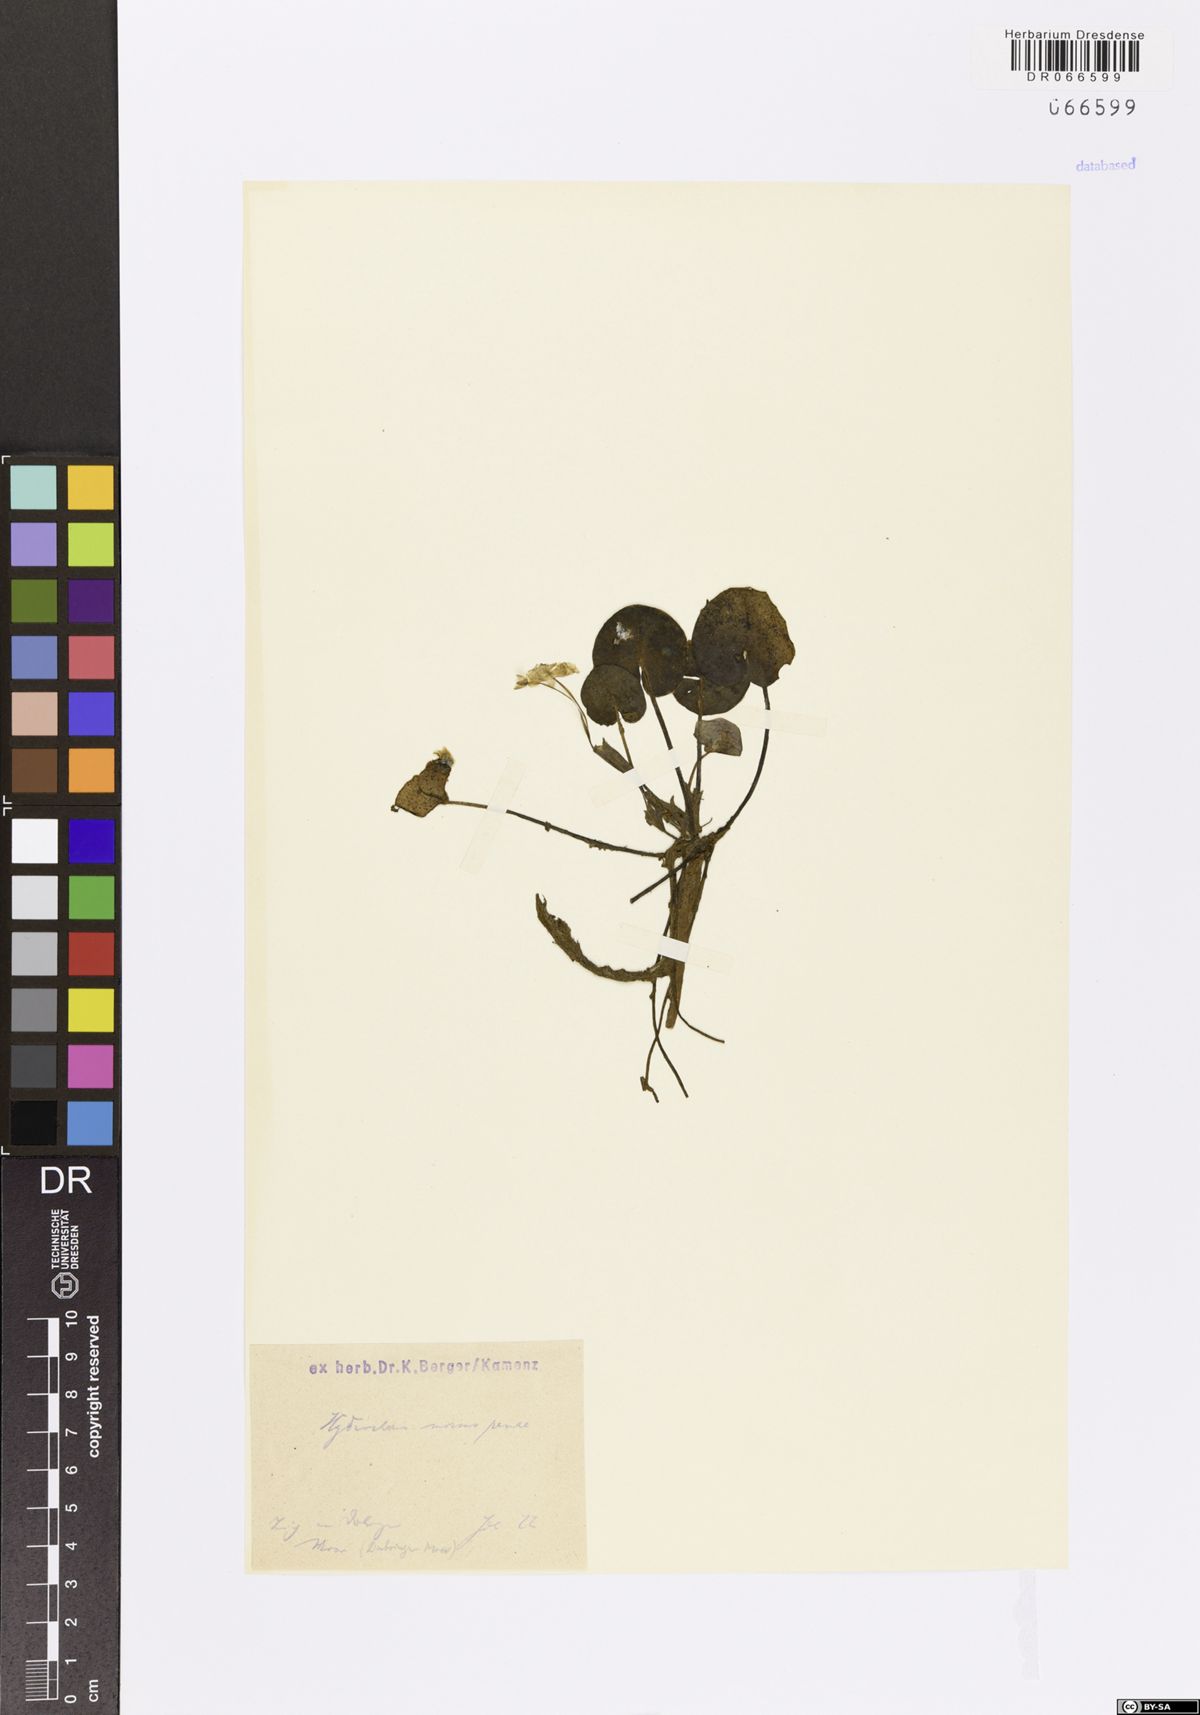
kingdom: Plantae
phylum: Tracheophyta
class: Liliopsida
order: Alismatales
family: Hydrocharitaceae
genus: Hydrocharis
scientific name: Hydrocharis morsus-ranae
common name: Frogbit
